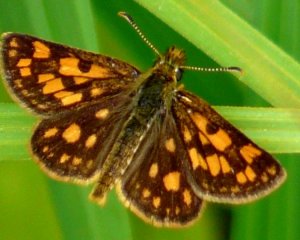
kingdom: Animalia
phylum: Arthropoda
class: Insecta
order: Lepidoptera
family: Hesperiidae
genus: Carterocephalus
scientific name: Carterocephalus palaemon
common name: Chequered Skipper
